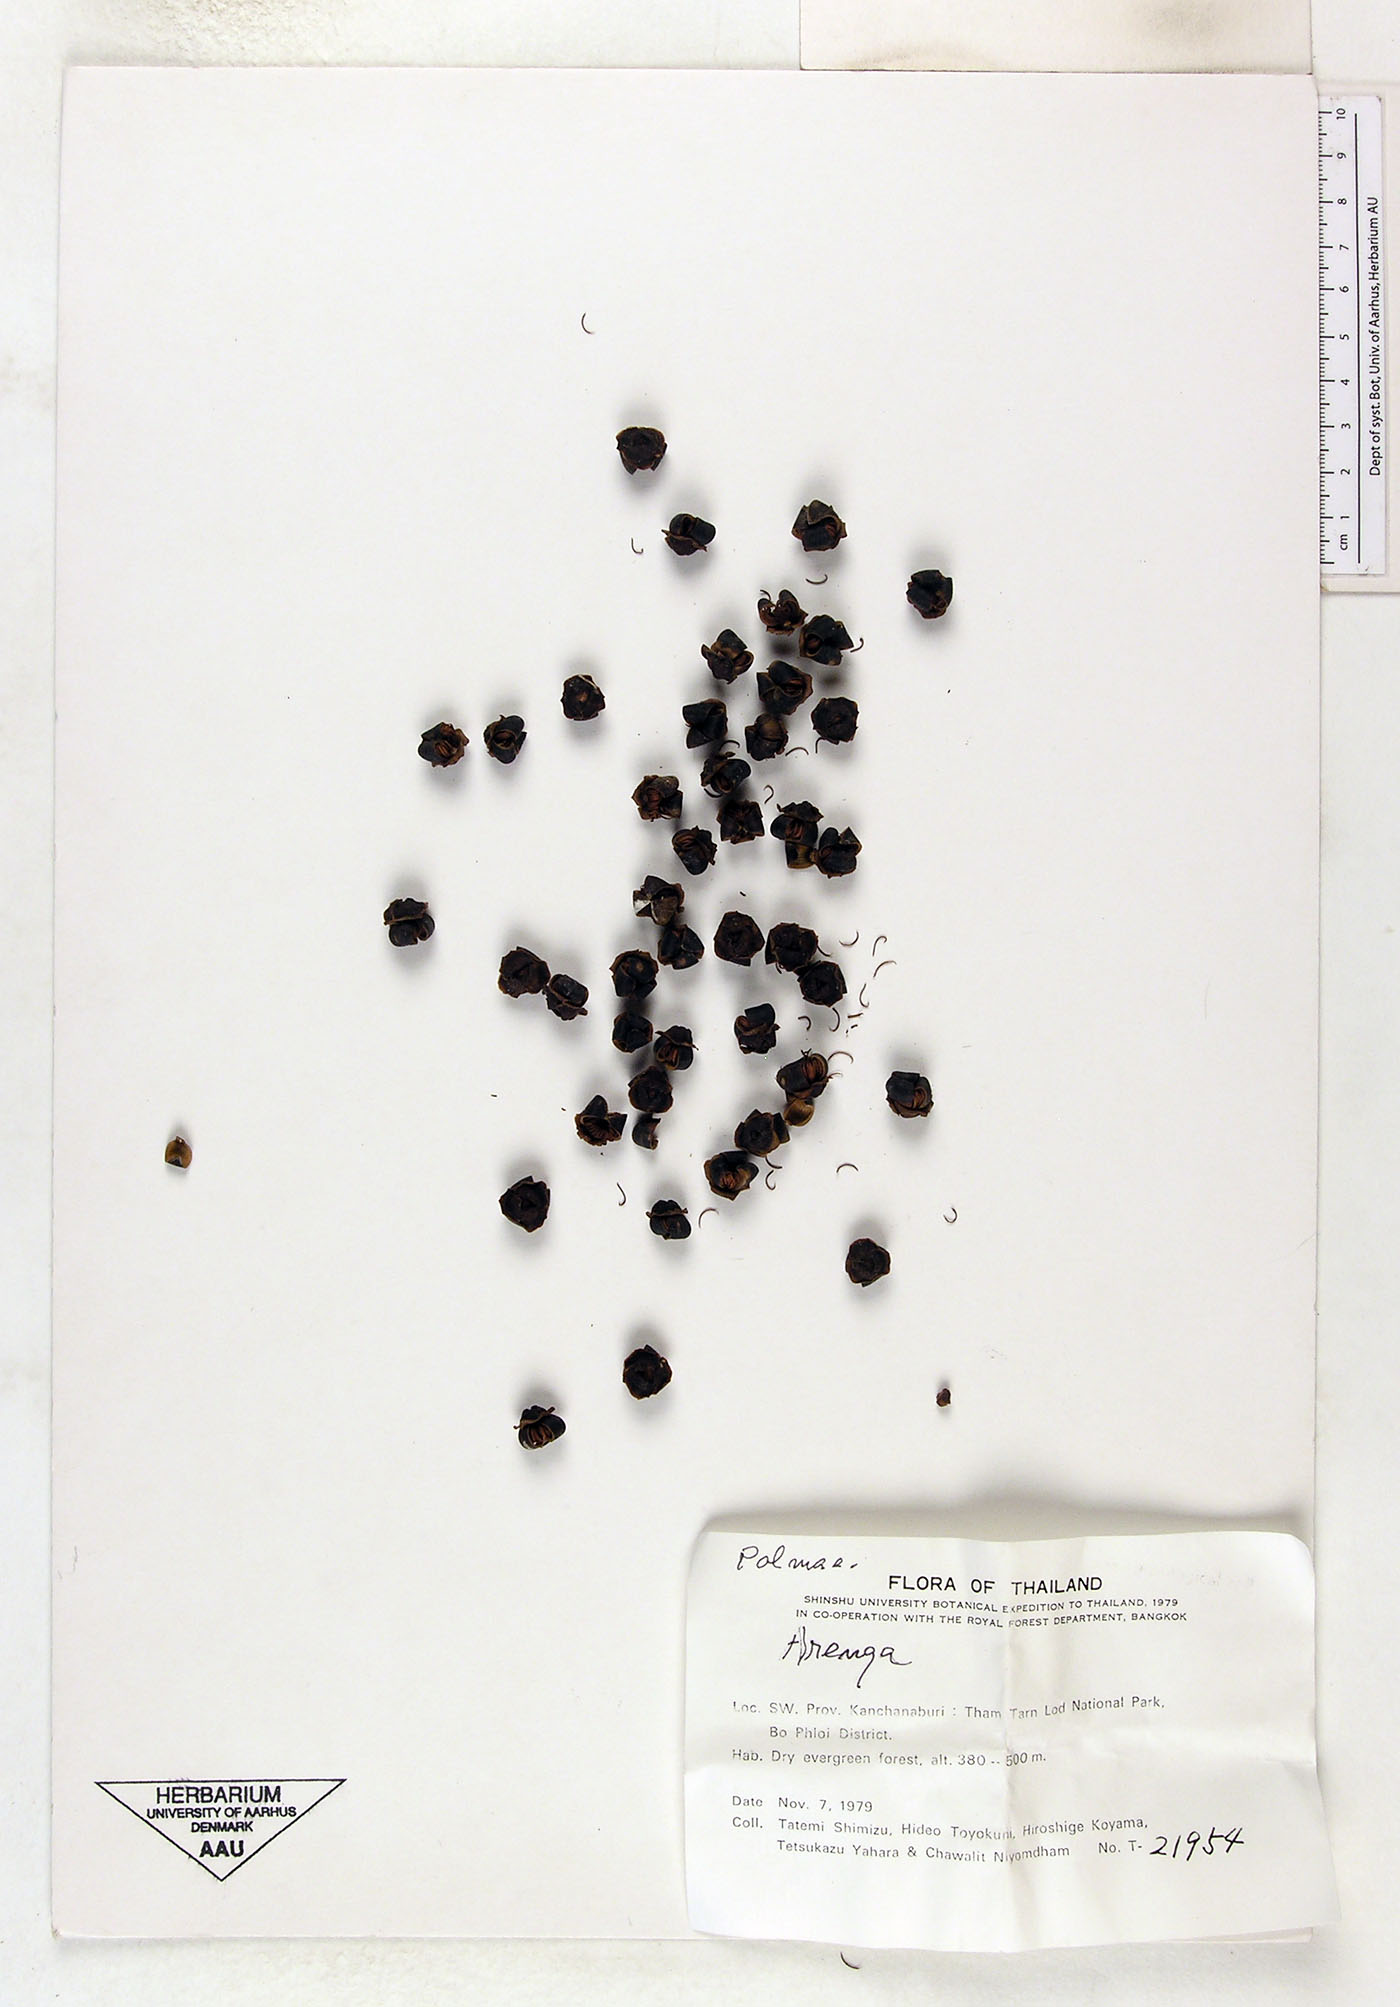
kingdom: Plantae
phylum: Tracheophyta
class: Liliopsida
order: Arecales
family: Arecaceae
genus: Arenga
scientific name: Arenga
